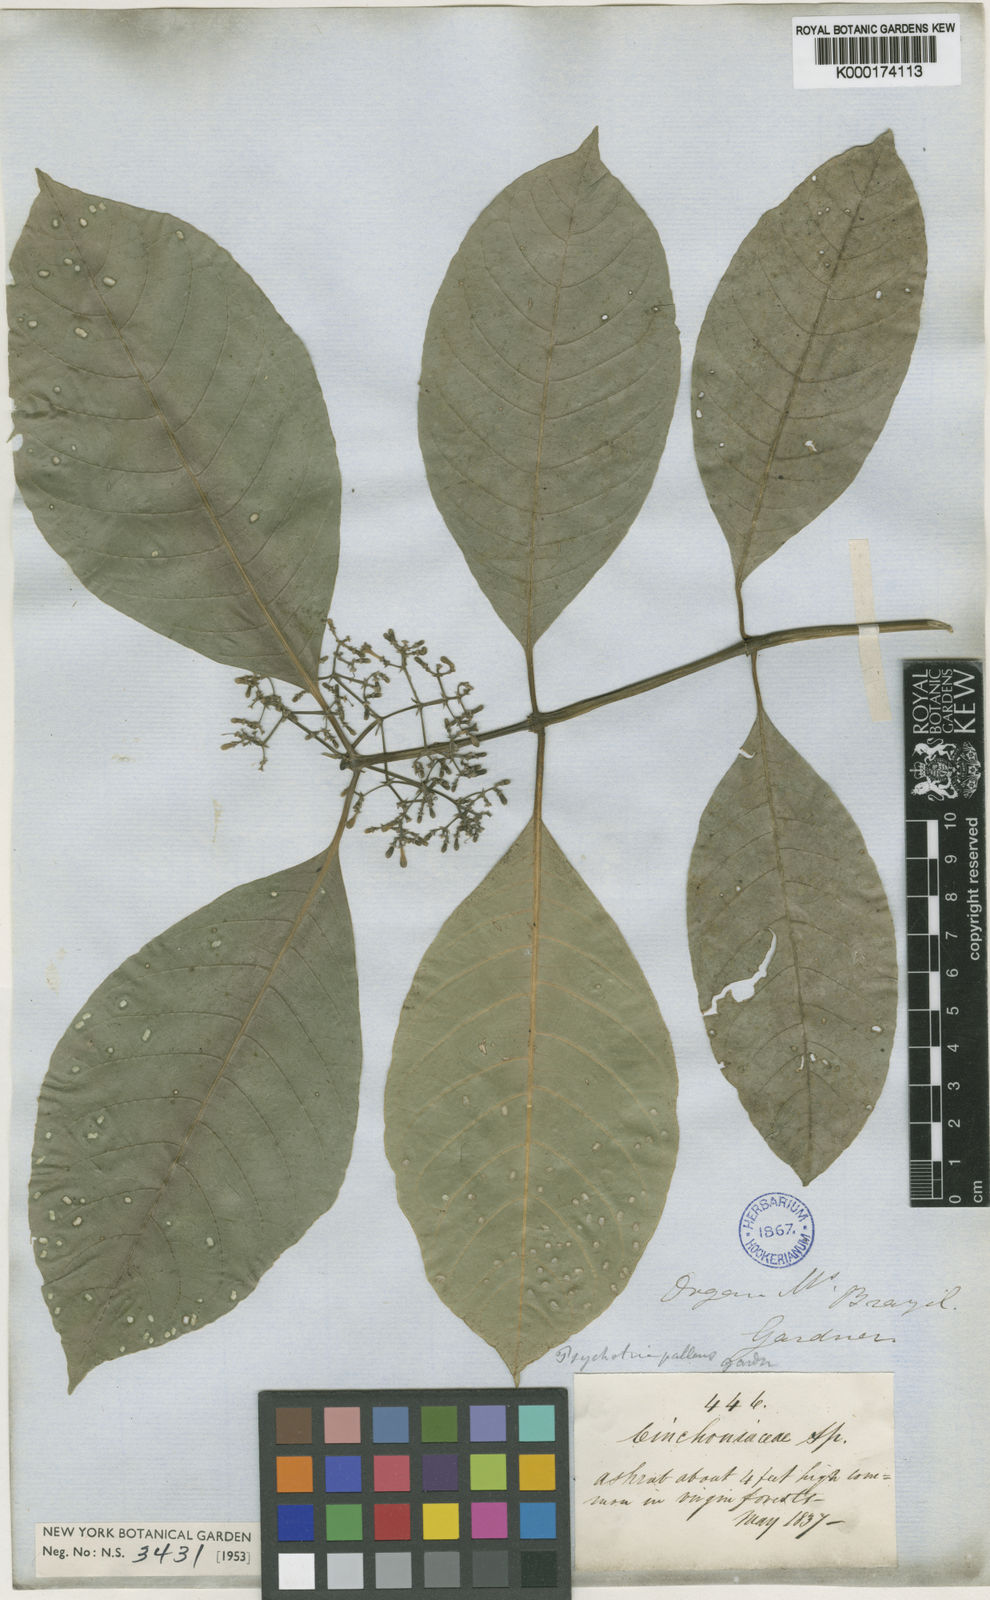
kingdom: Plantae
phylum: Tracheophyta
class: Magnoliopsida
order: Gentianales
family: Rubiaceae
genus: Psychotria
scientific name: Psychotria pallens
